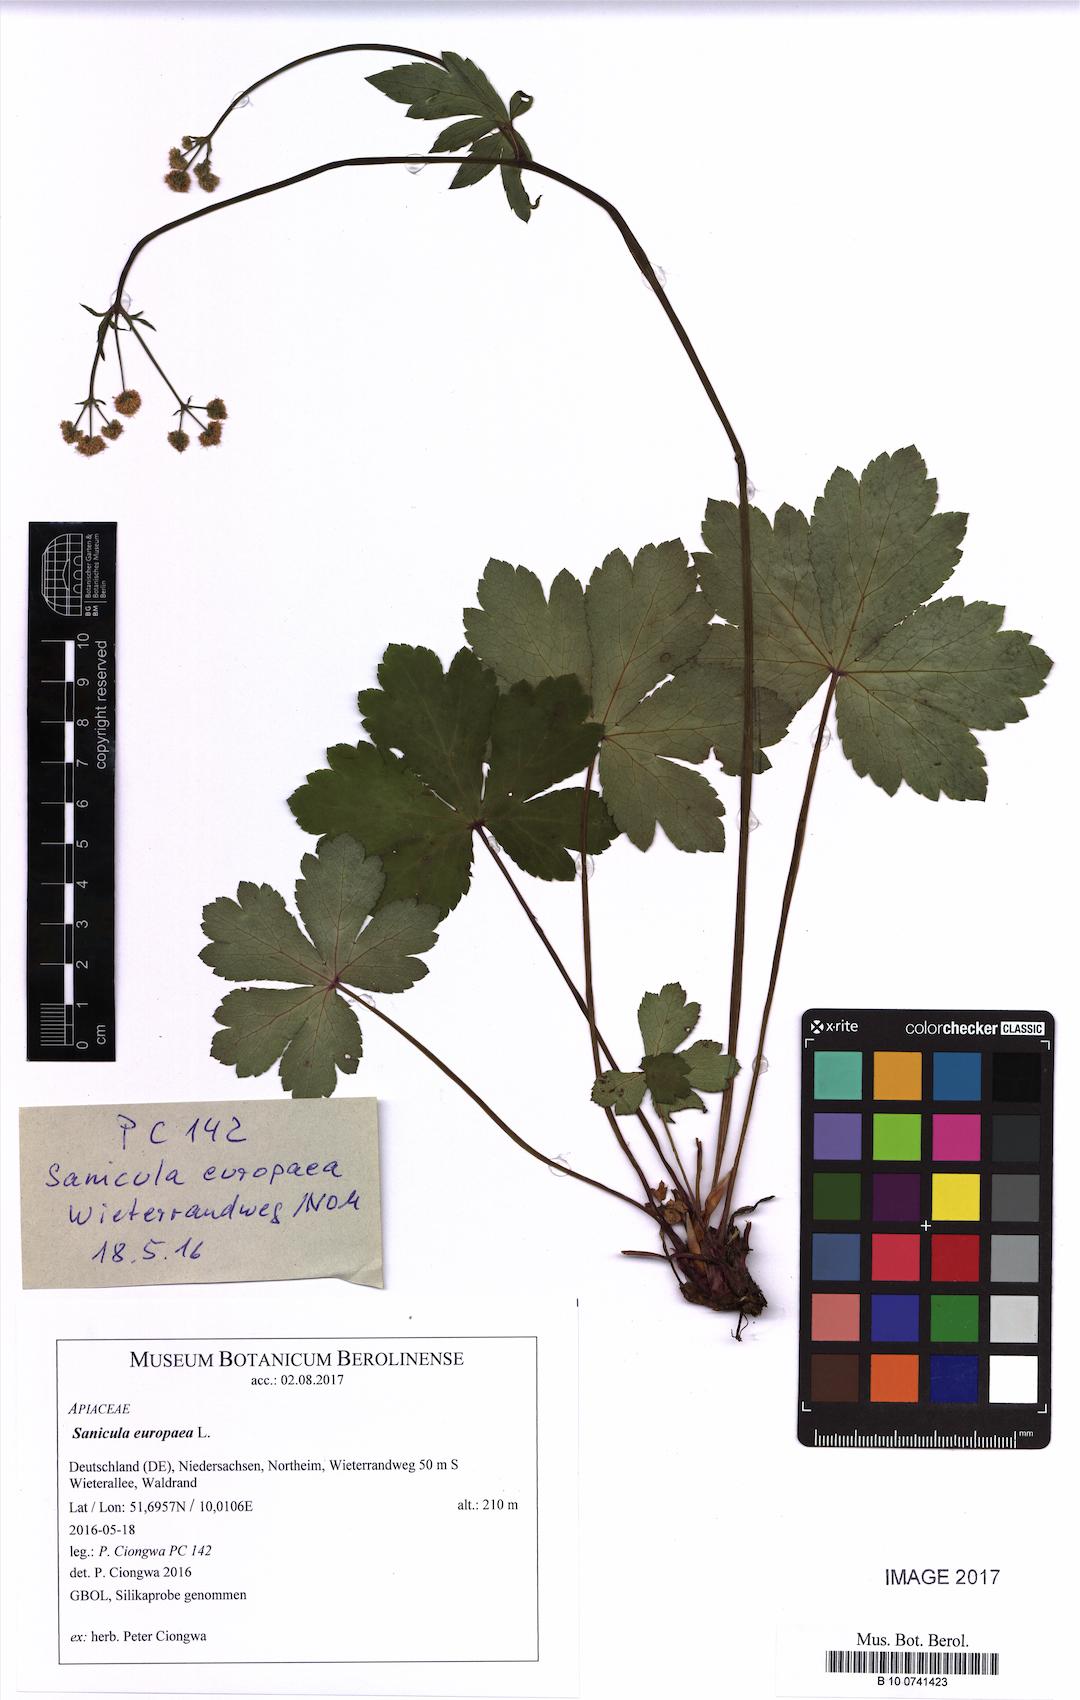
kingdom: Plantae
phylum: Tracheophyta
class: Magnoliopsida
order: Apiales
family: Apiaceae
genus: Sanicula
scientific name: Sanicula europaea
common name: Sanicle
